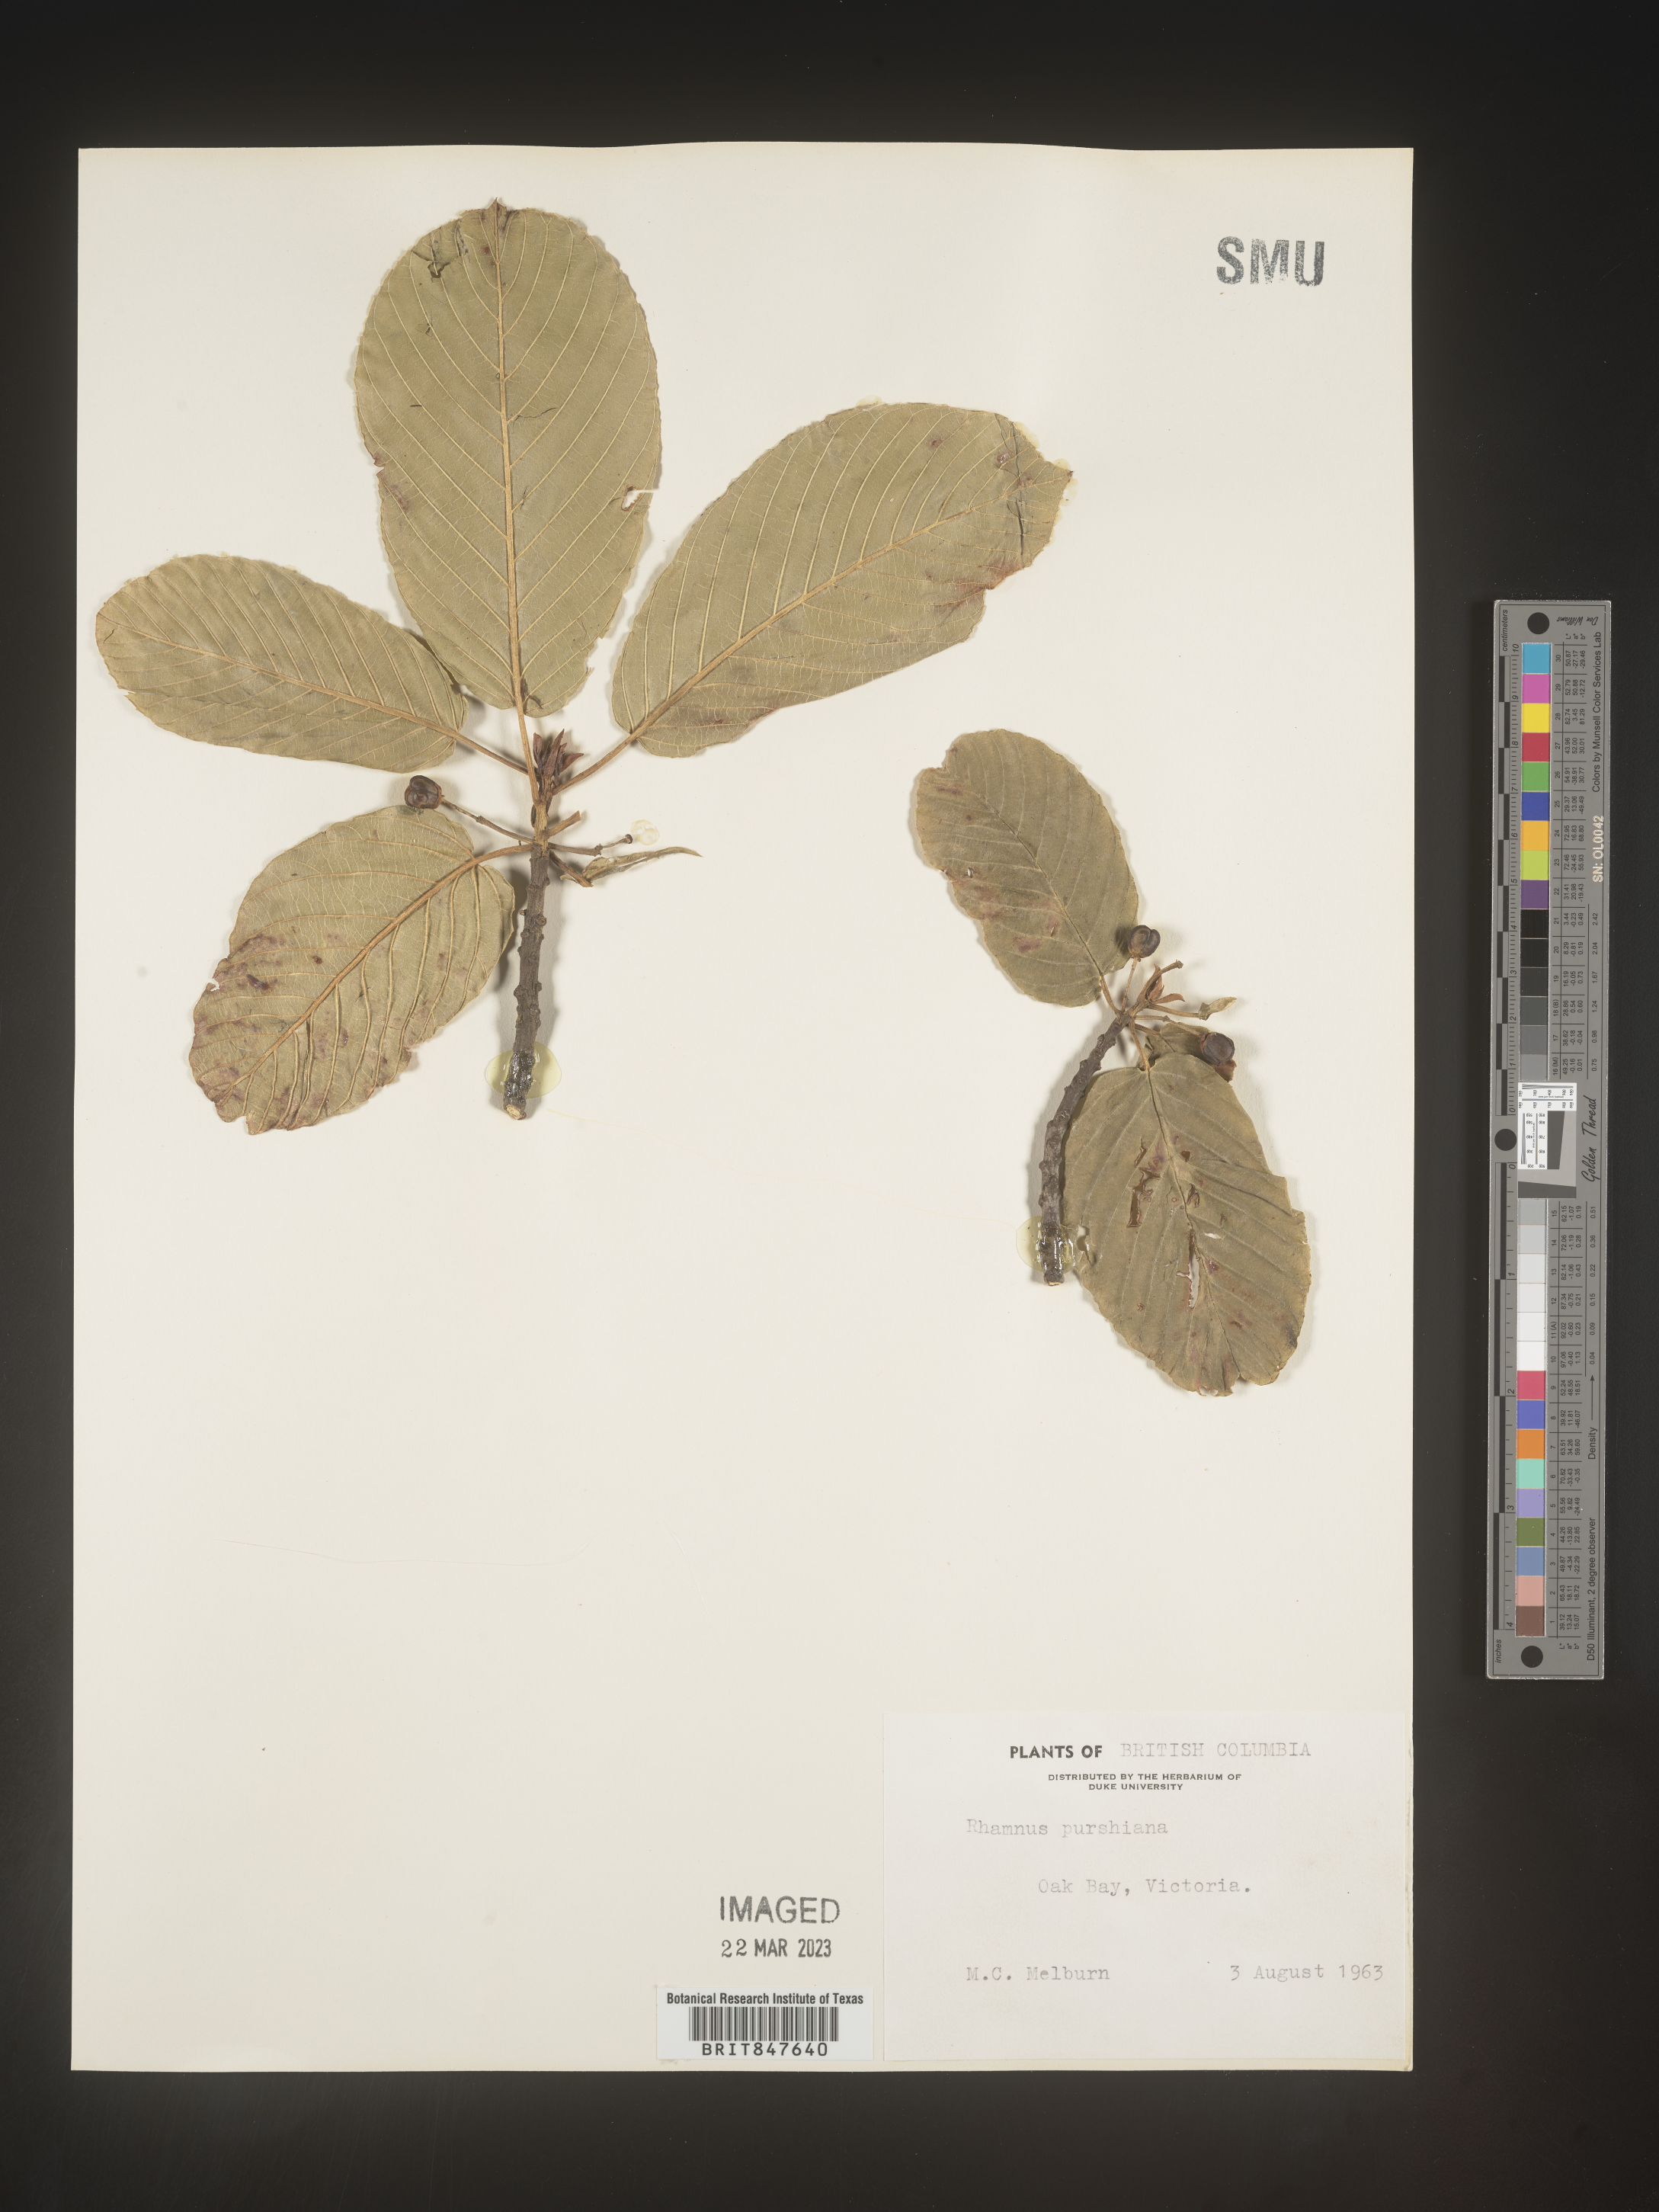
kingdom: Plantae
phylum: Tracheophyta
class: Magnoliopsida
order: Rosales
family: Rhamnaceae
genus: Frangula
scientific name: Frangula purshiana
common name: Cascara buckthorn
